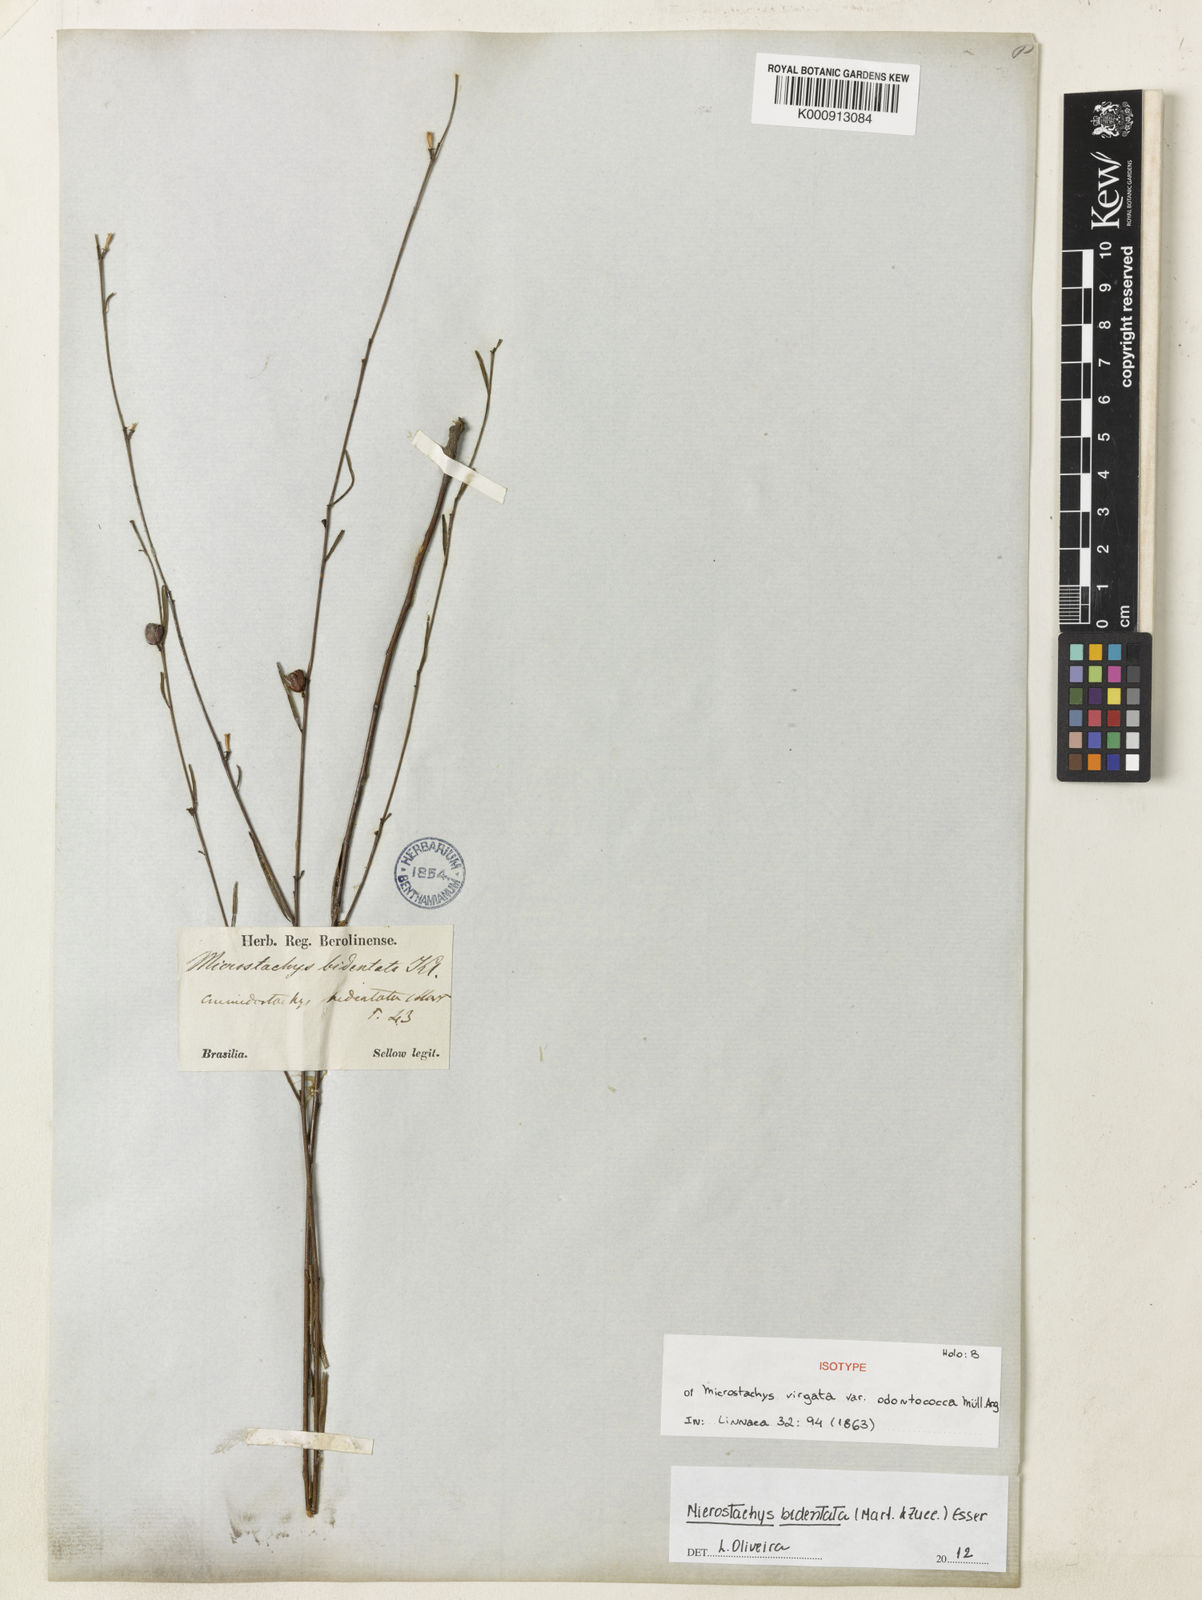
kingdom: Plantae
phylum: Tracheophyta
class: Magnoliopsida
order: Malpighiales
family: Euphorbiaceae
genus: Microstachys
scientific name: Microstachys bidentata
